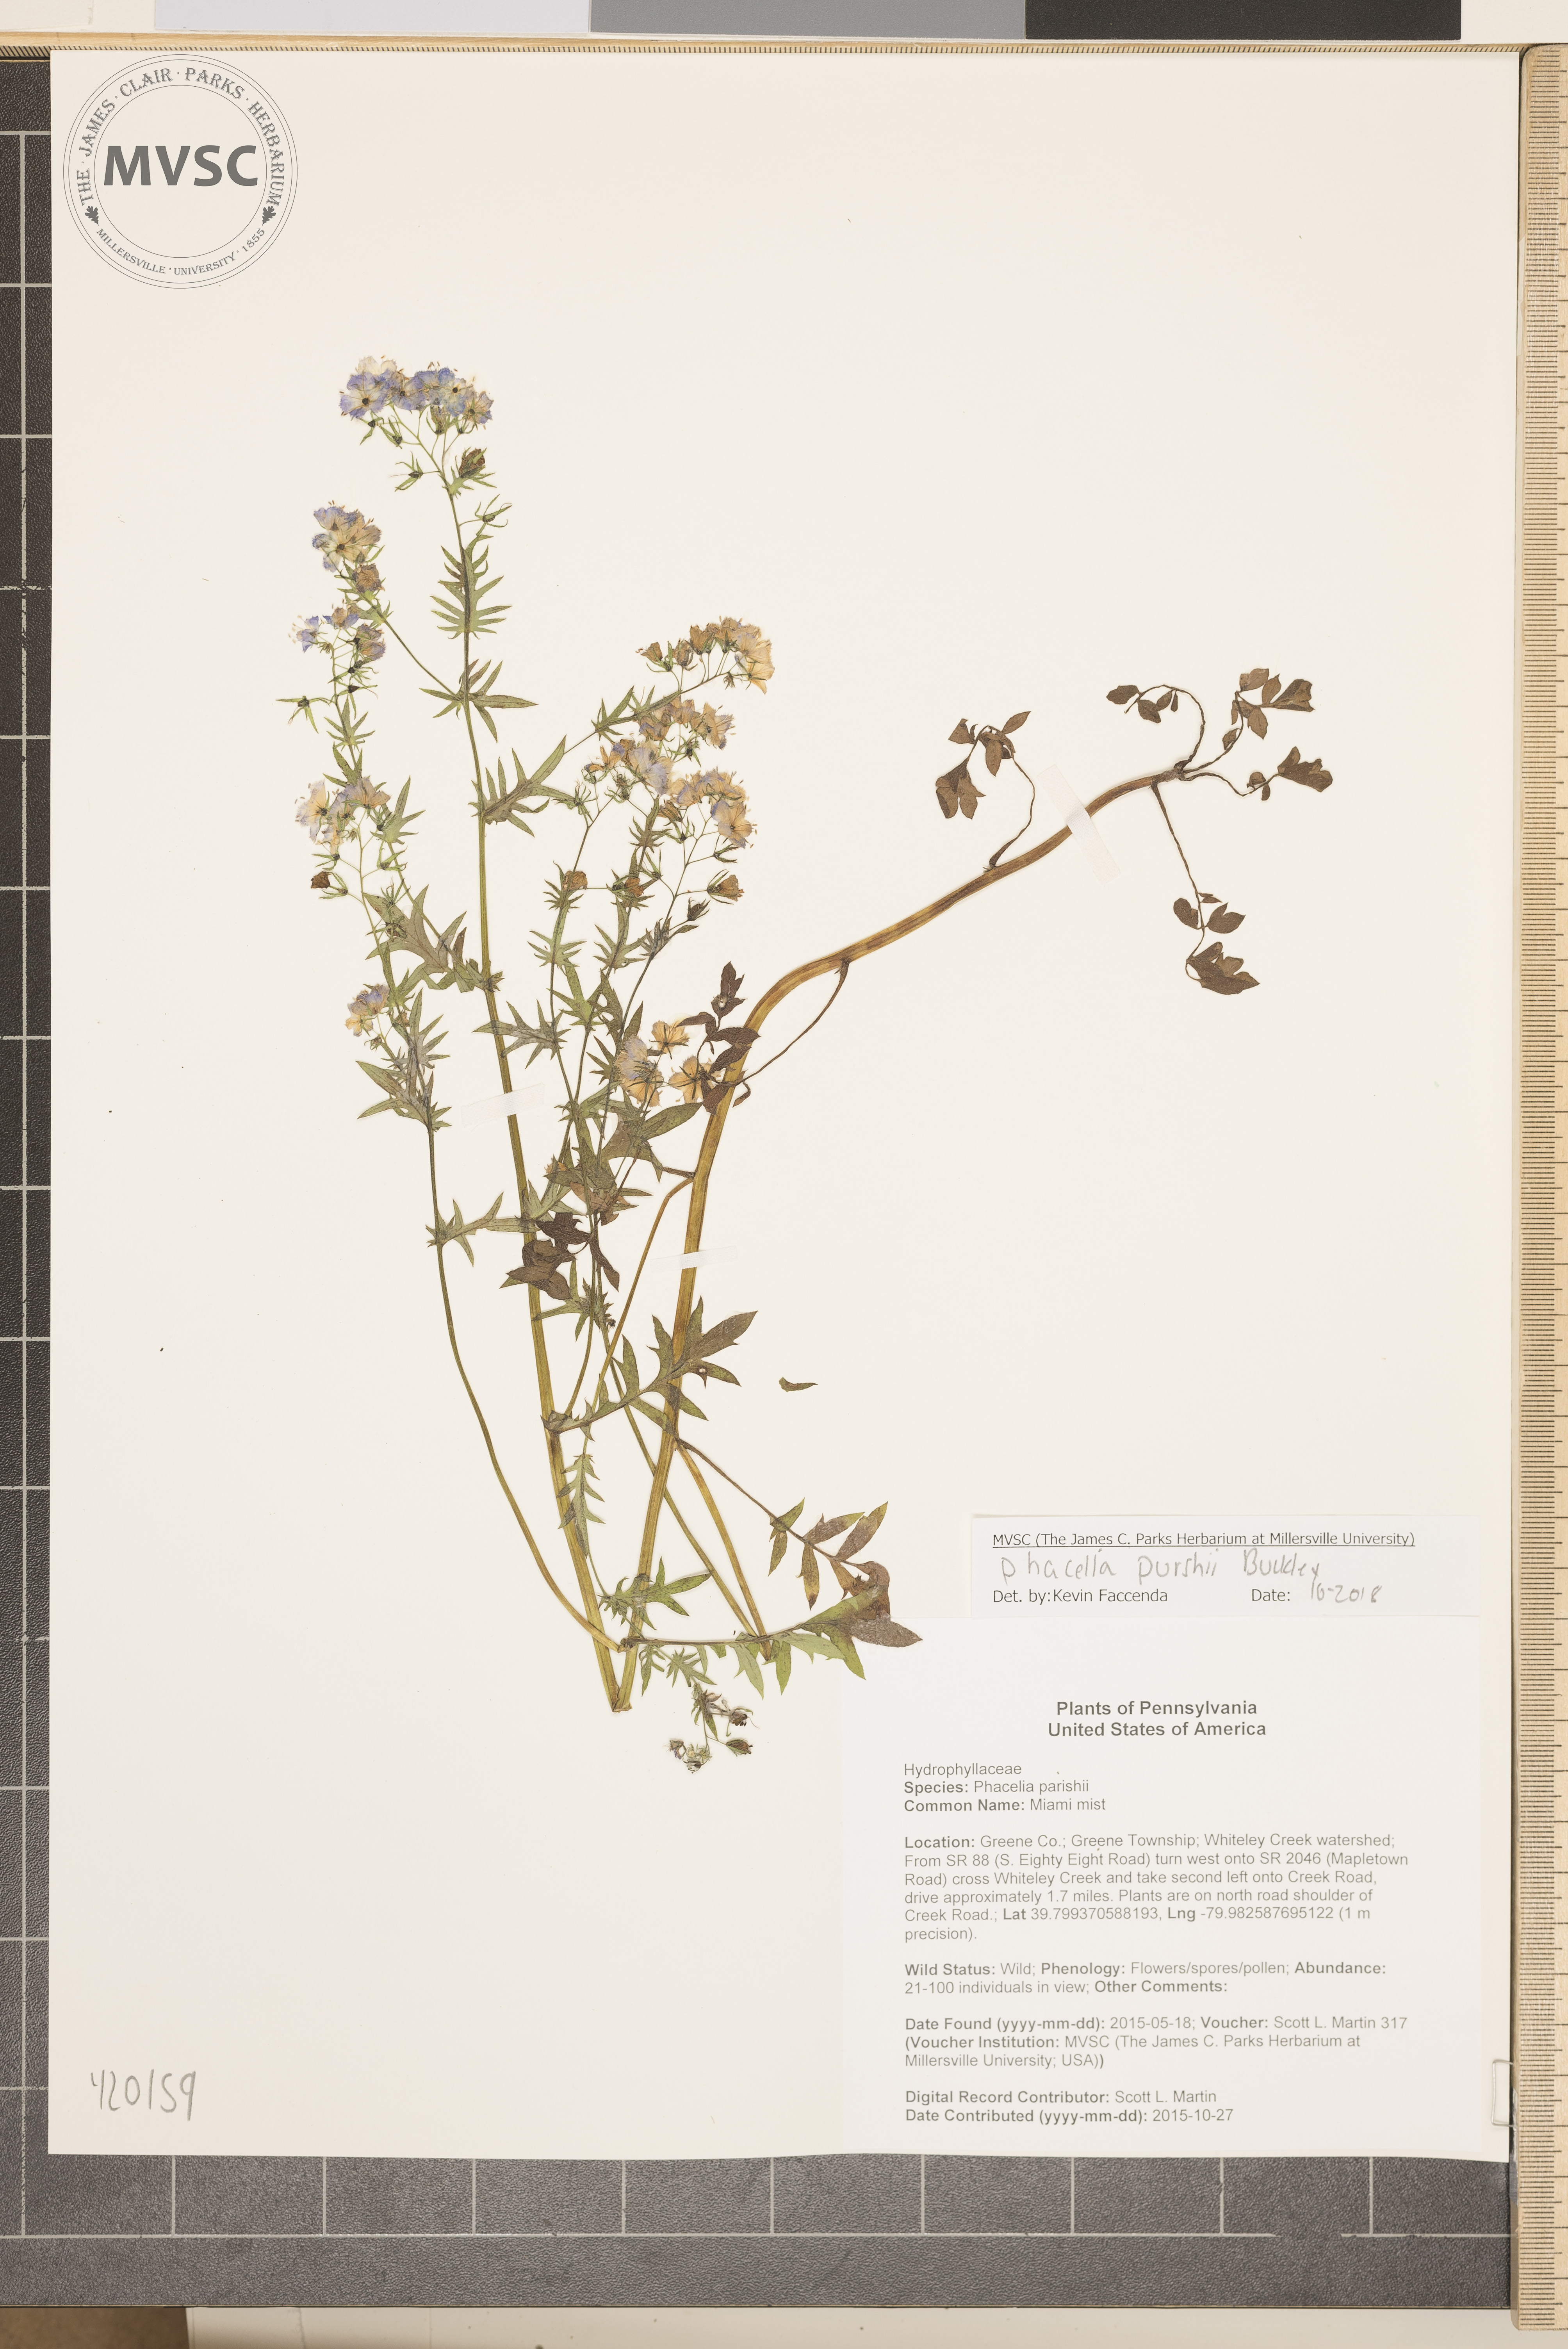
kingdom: Plantae
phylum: Tracheophyta
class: Magnoliopsida
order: Boraginales
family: Hydrophyllaceae
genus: Phacelia
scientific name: Phacelia purshii
